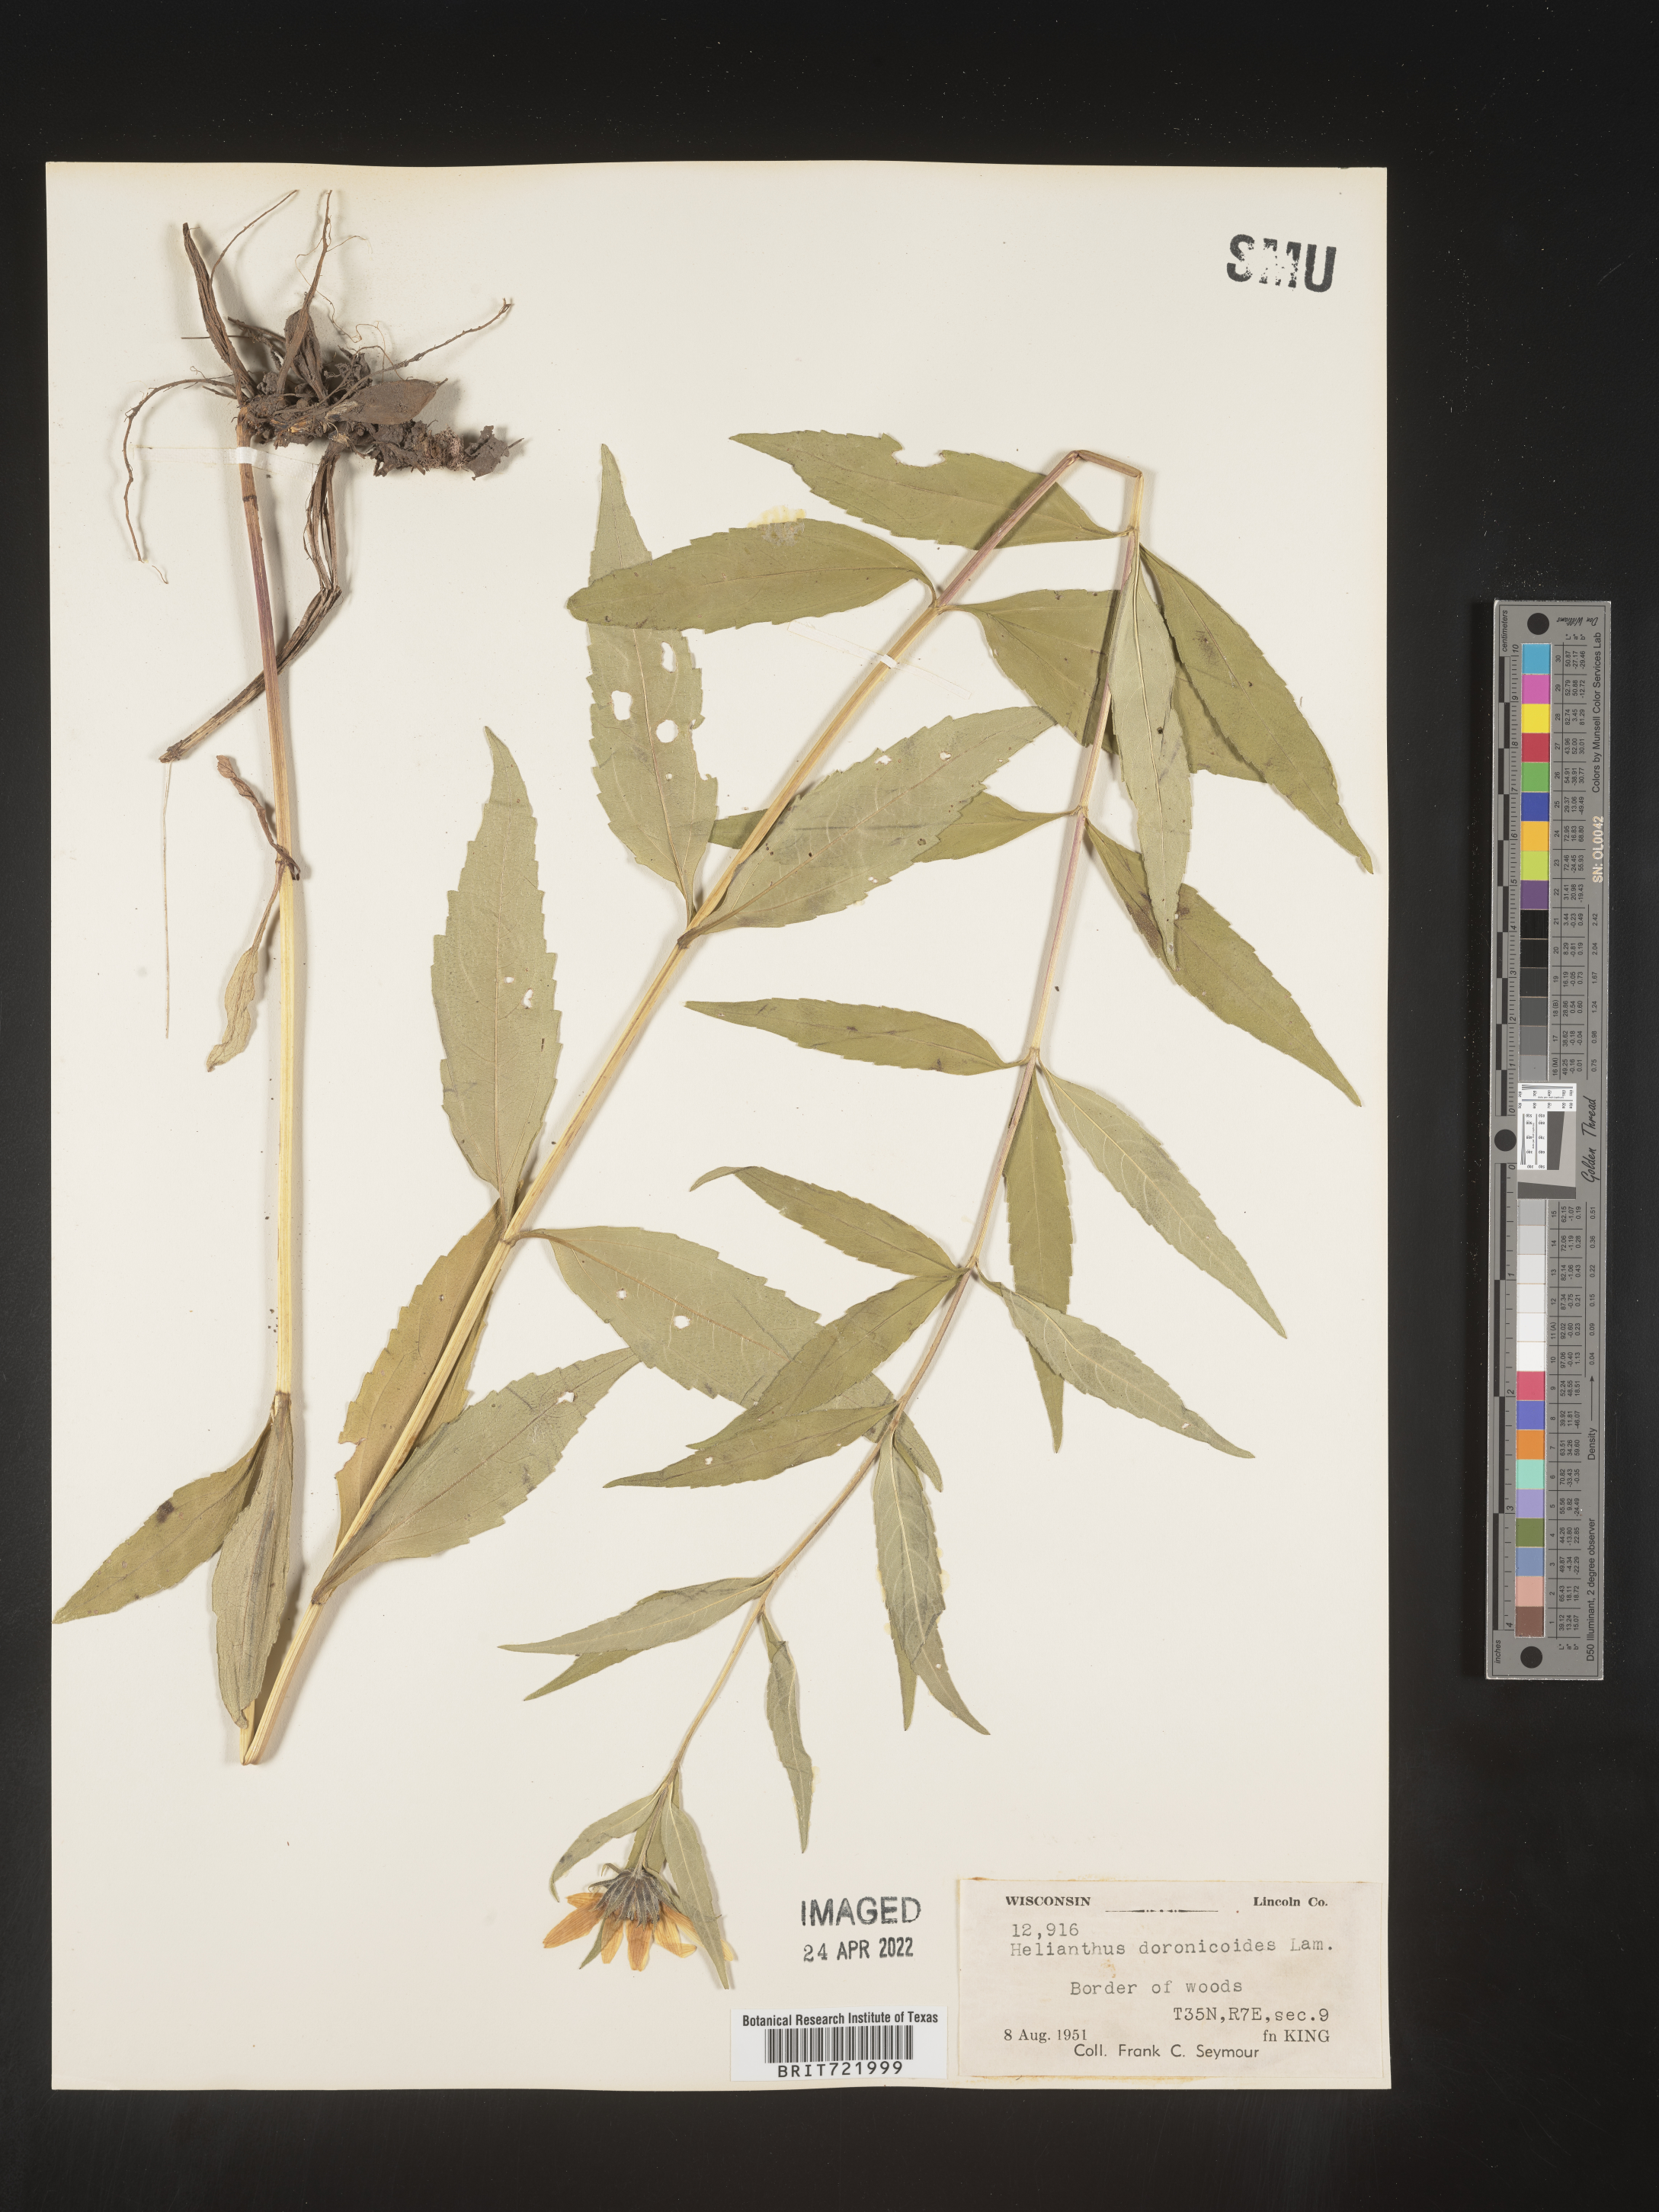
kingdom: Plantae
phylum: Tracheophyta
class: Magnoliopsida
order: Asterales
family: Asteraceae
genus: Helianthus
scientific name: Helianthus
